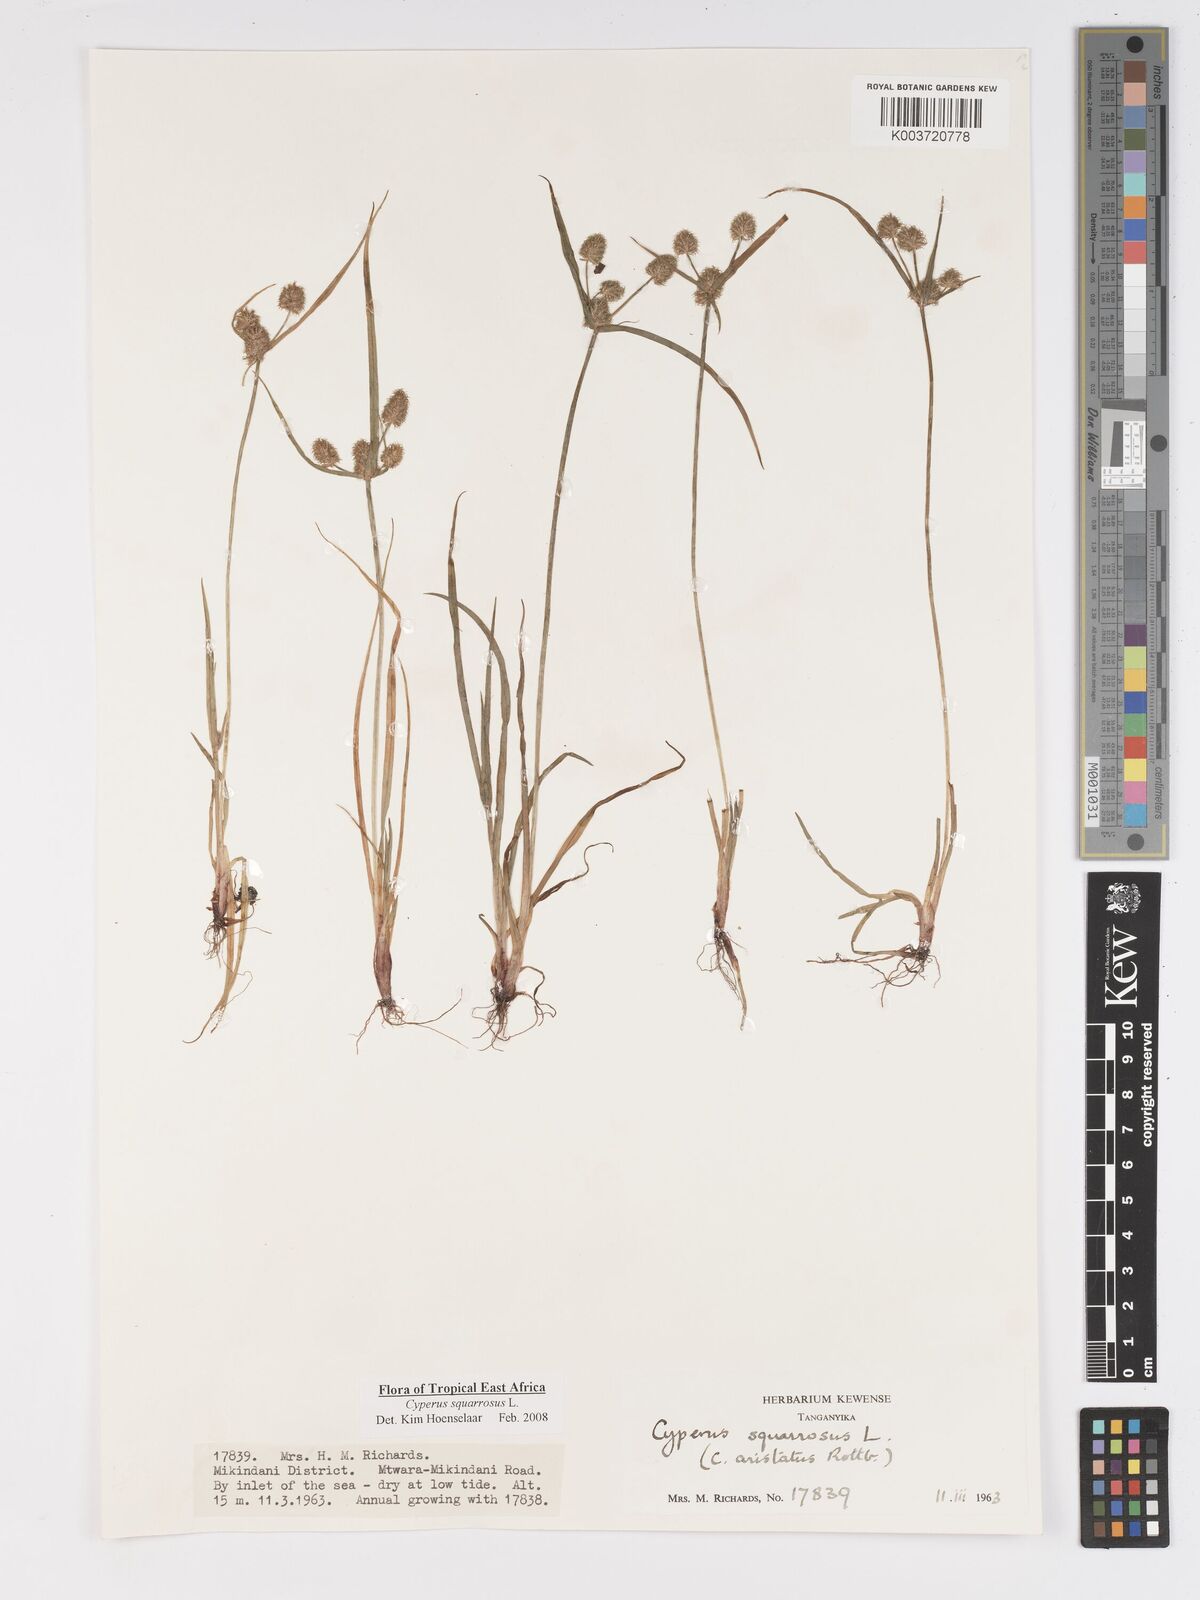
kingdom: Plantae
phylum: Tracheophyta
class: Liliopsida
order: Poales
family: Cyperaceae
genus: Cyperus
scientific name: Cyperus squarrosus
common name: Awned cyperus
